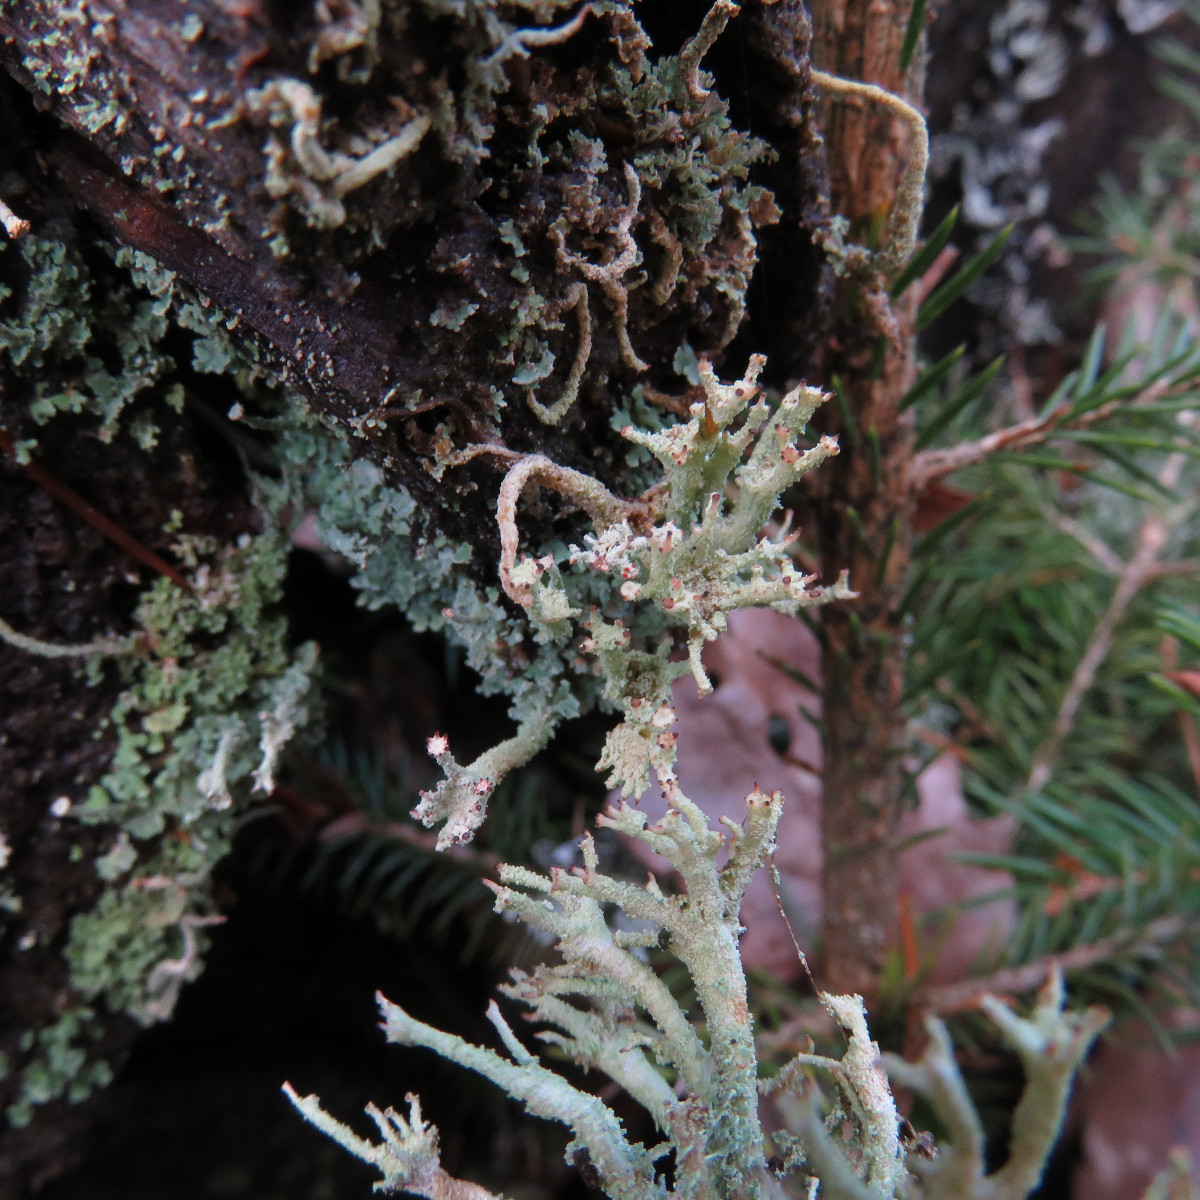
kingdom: Fungi
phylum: Ascomycota
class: Lecanoromycetes
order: Lecanorales
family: Cladoniaceae
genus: Cladonia
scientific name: Cladonia polydactyla
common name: vifte-bægerlav
